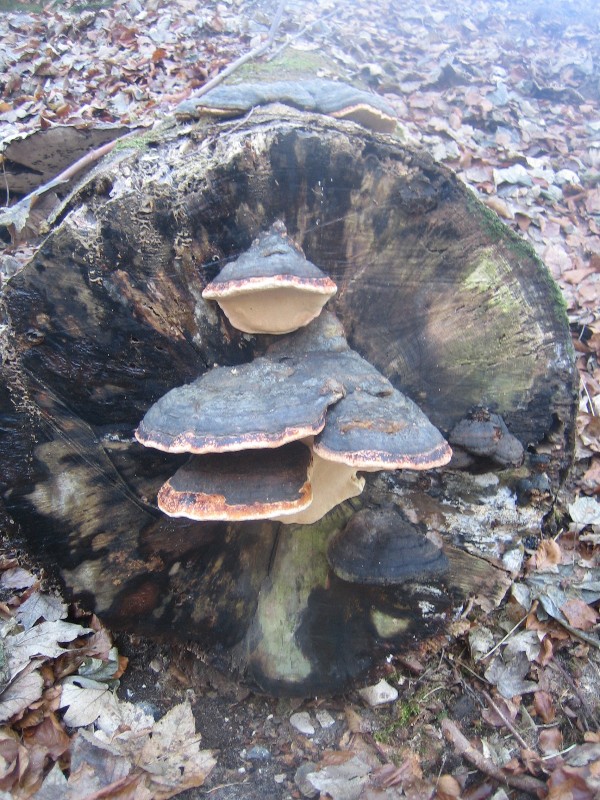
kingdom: Fungi
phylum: Basidiomycota
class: Agaricomycetes
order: Polyporales
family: Fomitopsidaceae
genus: Fomitopsis
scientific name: Fomitopsis pinicola
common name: randbæltet hovporesvamp
